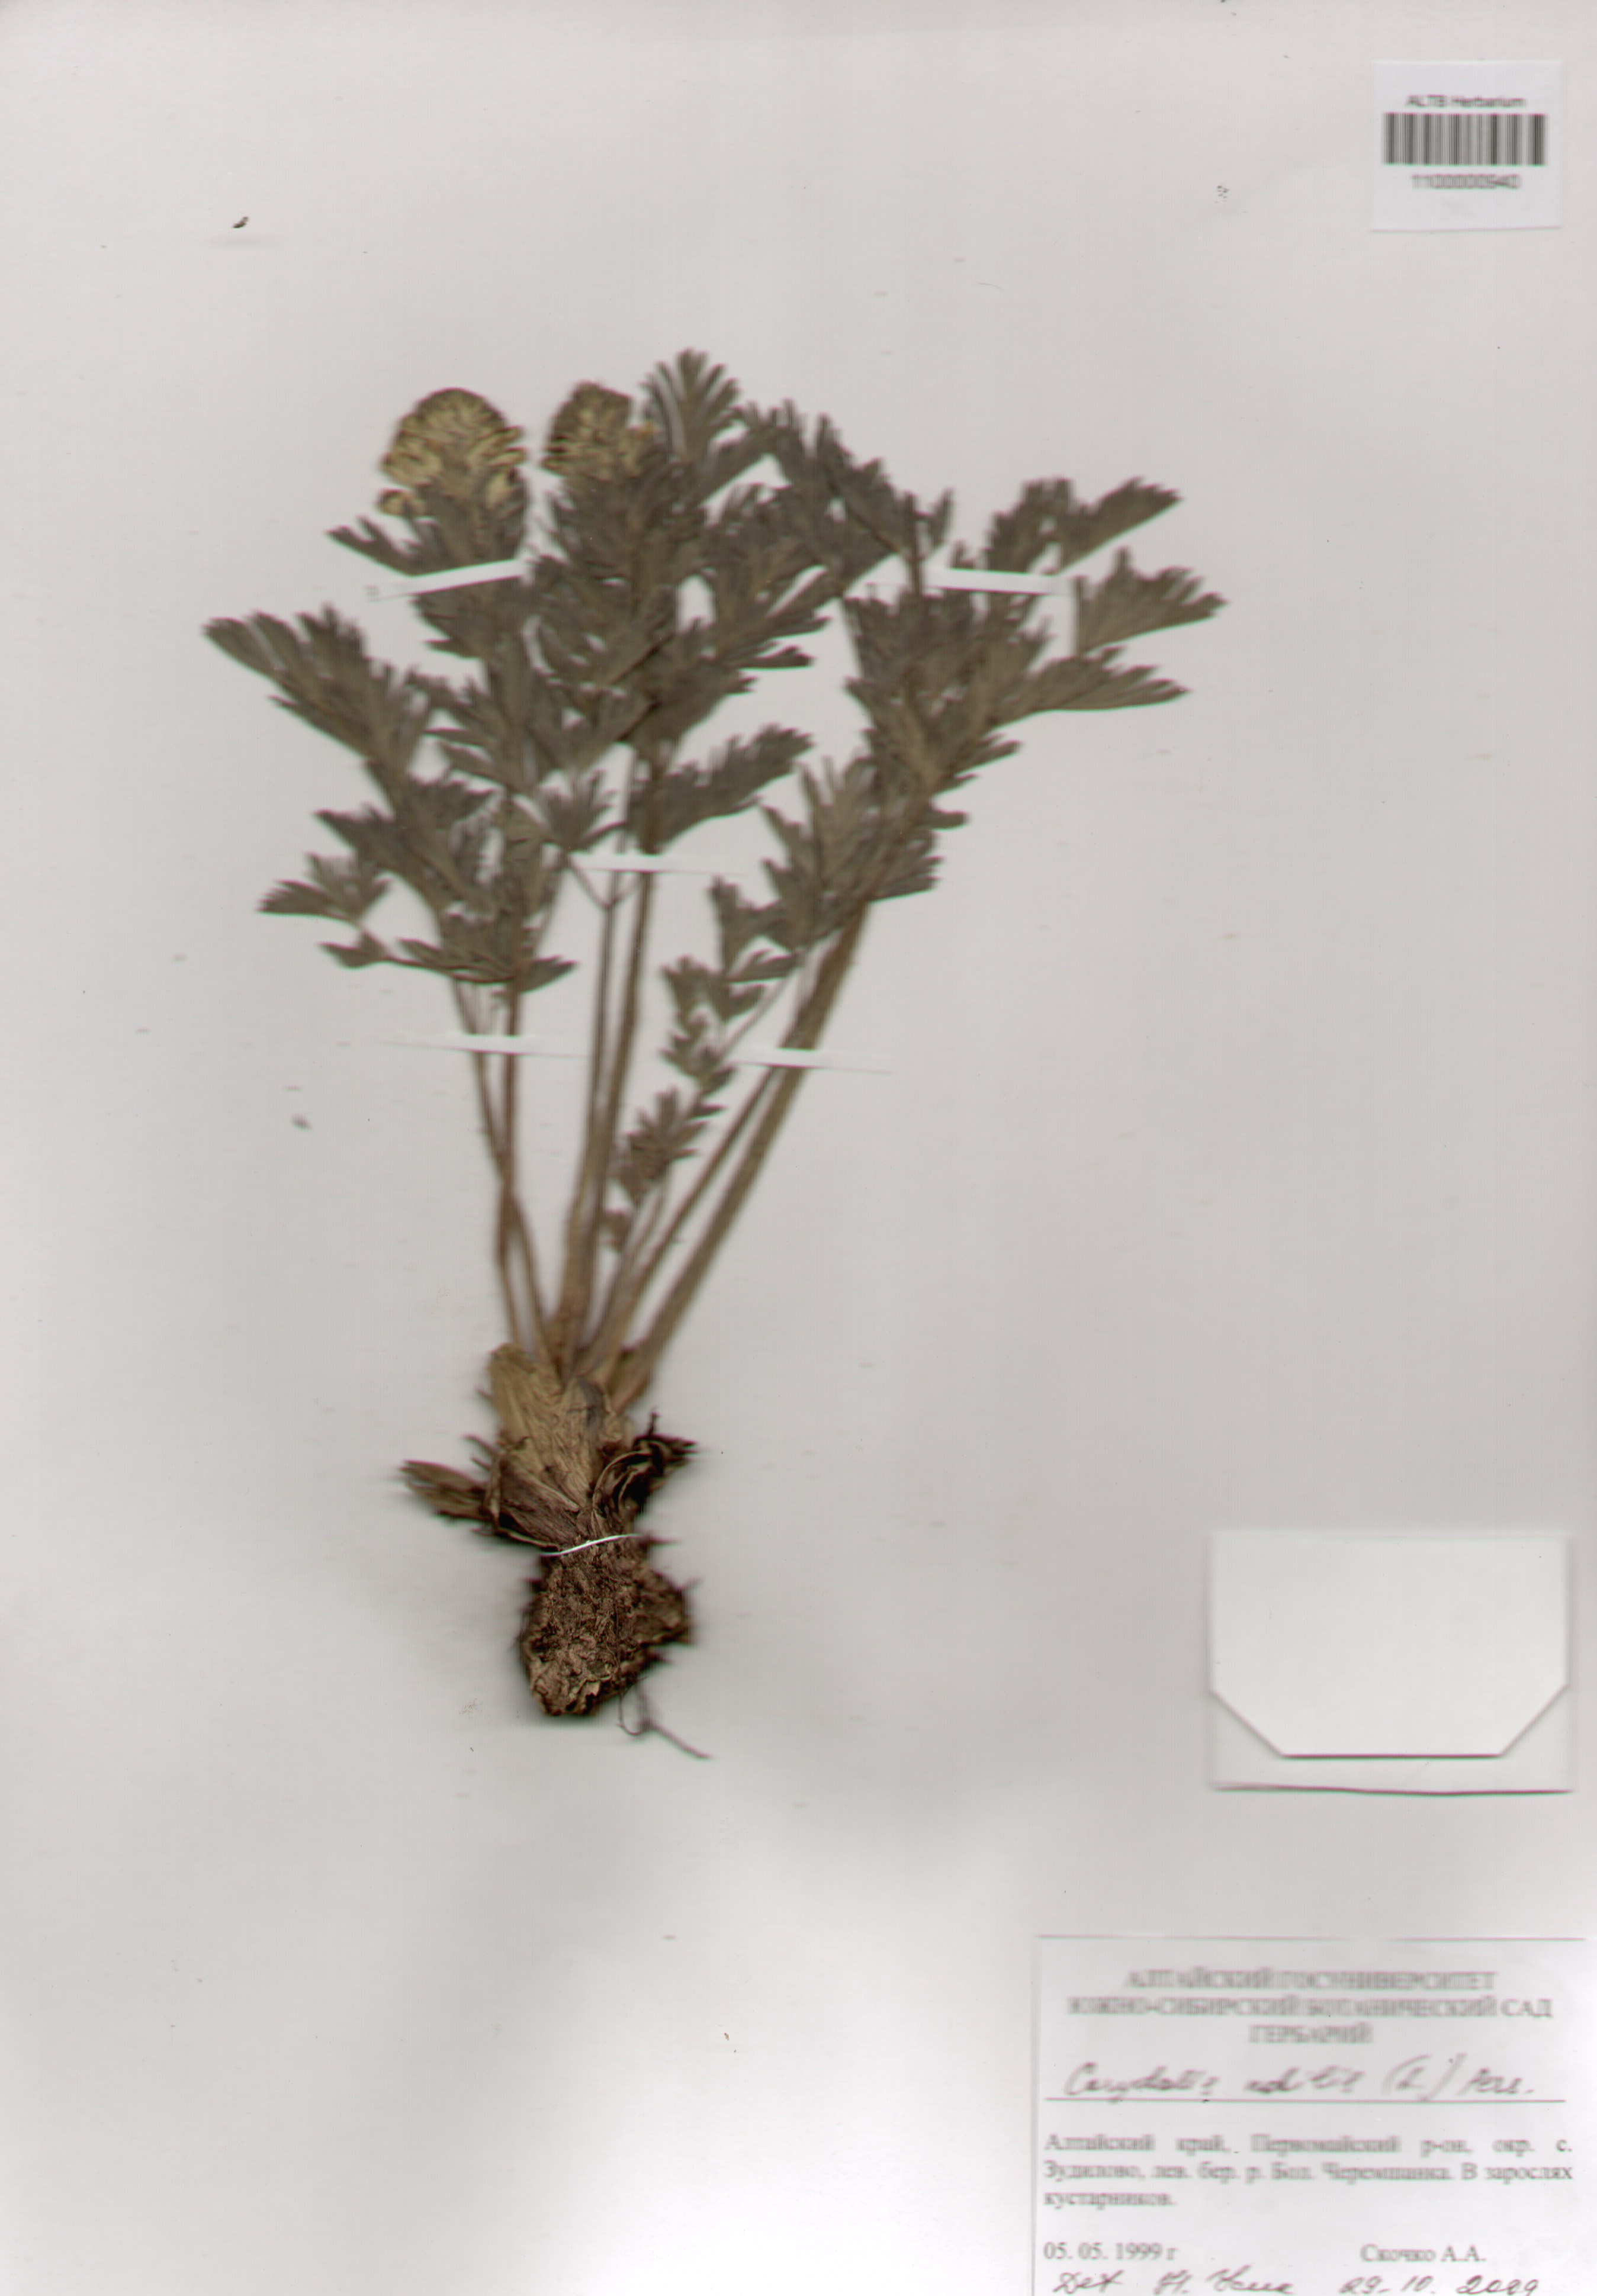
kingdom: Plantae
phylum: Tracheophyta
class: Magnoliopsida
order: Ranunculales
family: Papaveraceae
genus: Corydalis
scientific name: Corydalis nobilis
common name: Siberian corydalis
